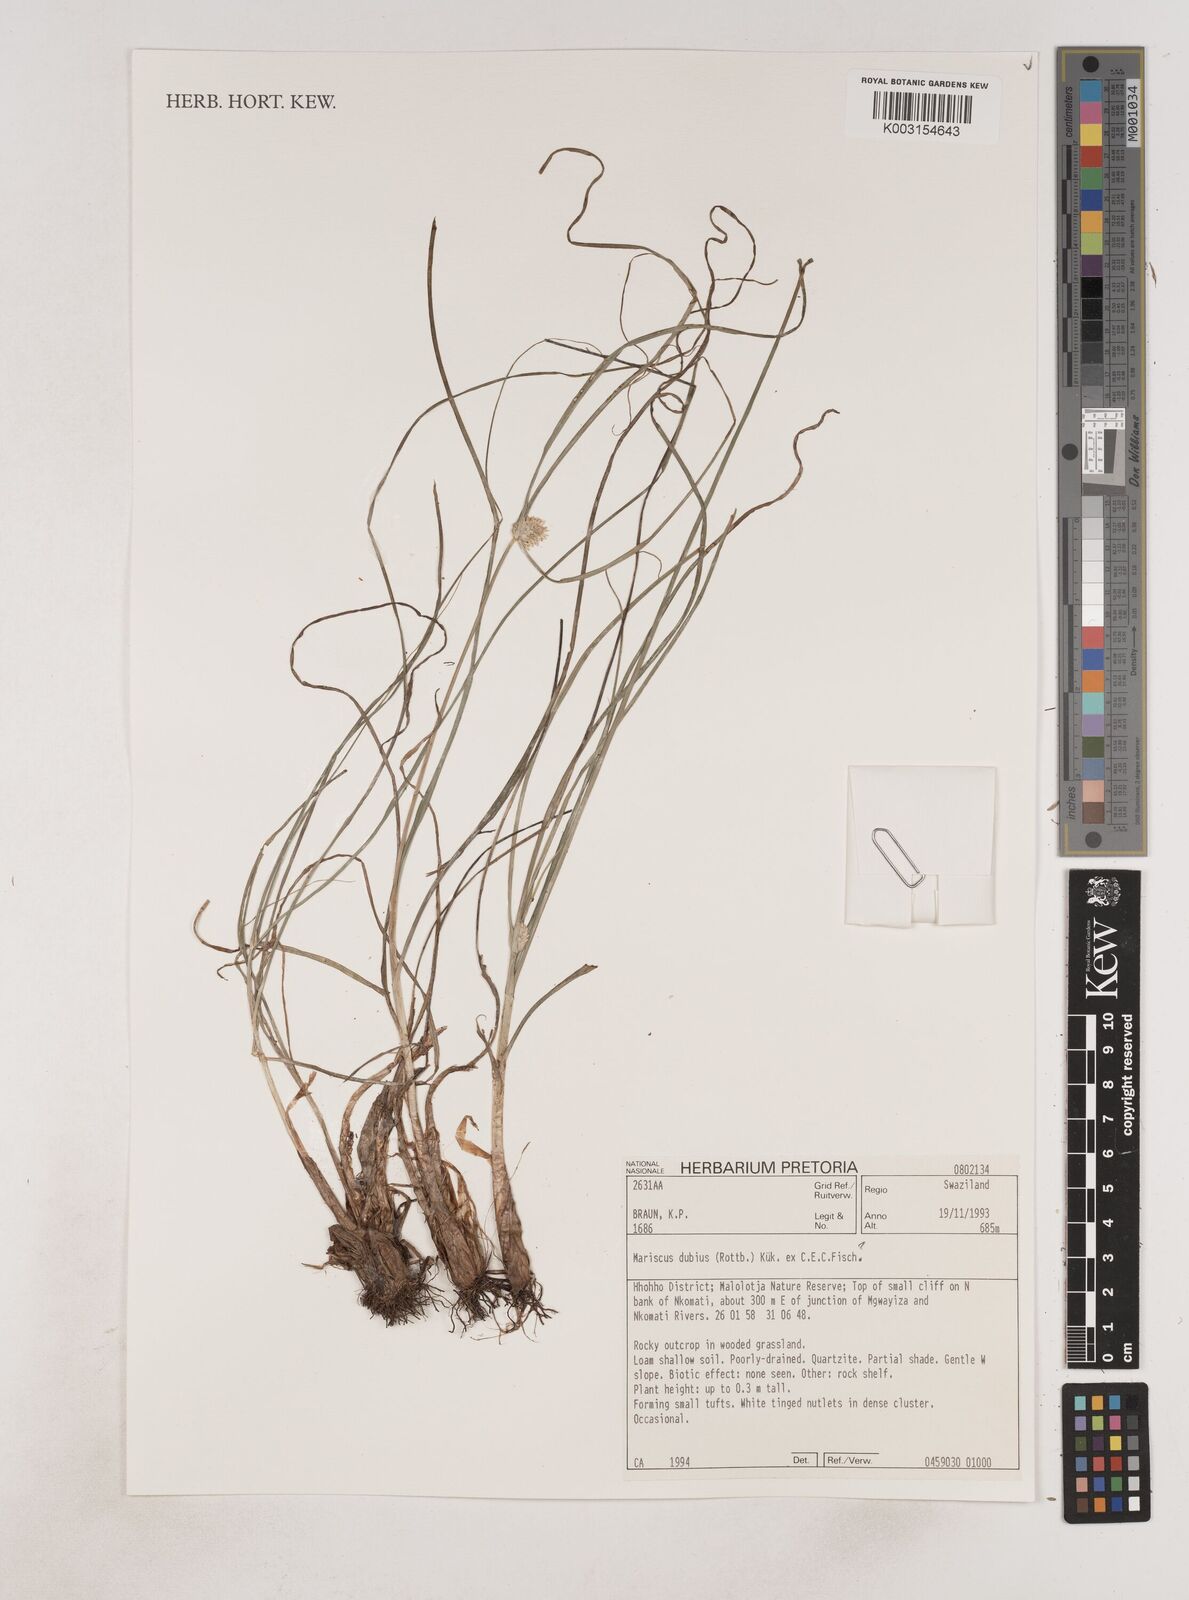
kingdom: Plantae
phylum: Tracheophyta
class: Liliopsida
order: Poales
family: Cyperaceae
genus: Cyperus
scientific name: Cyperus dubius
